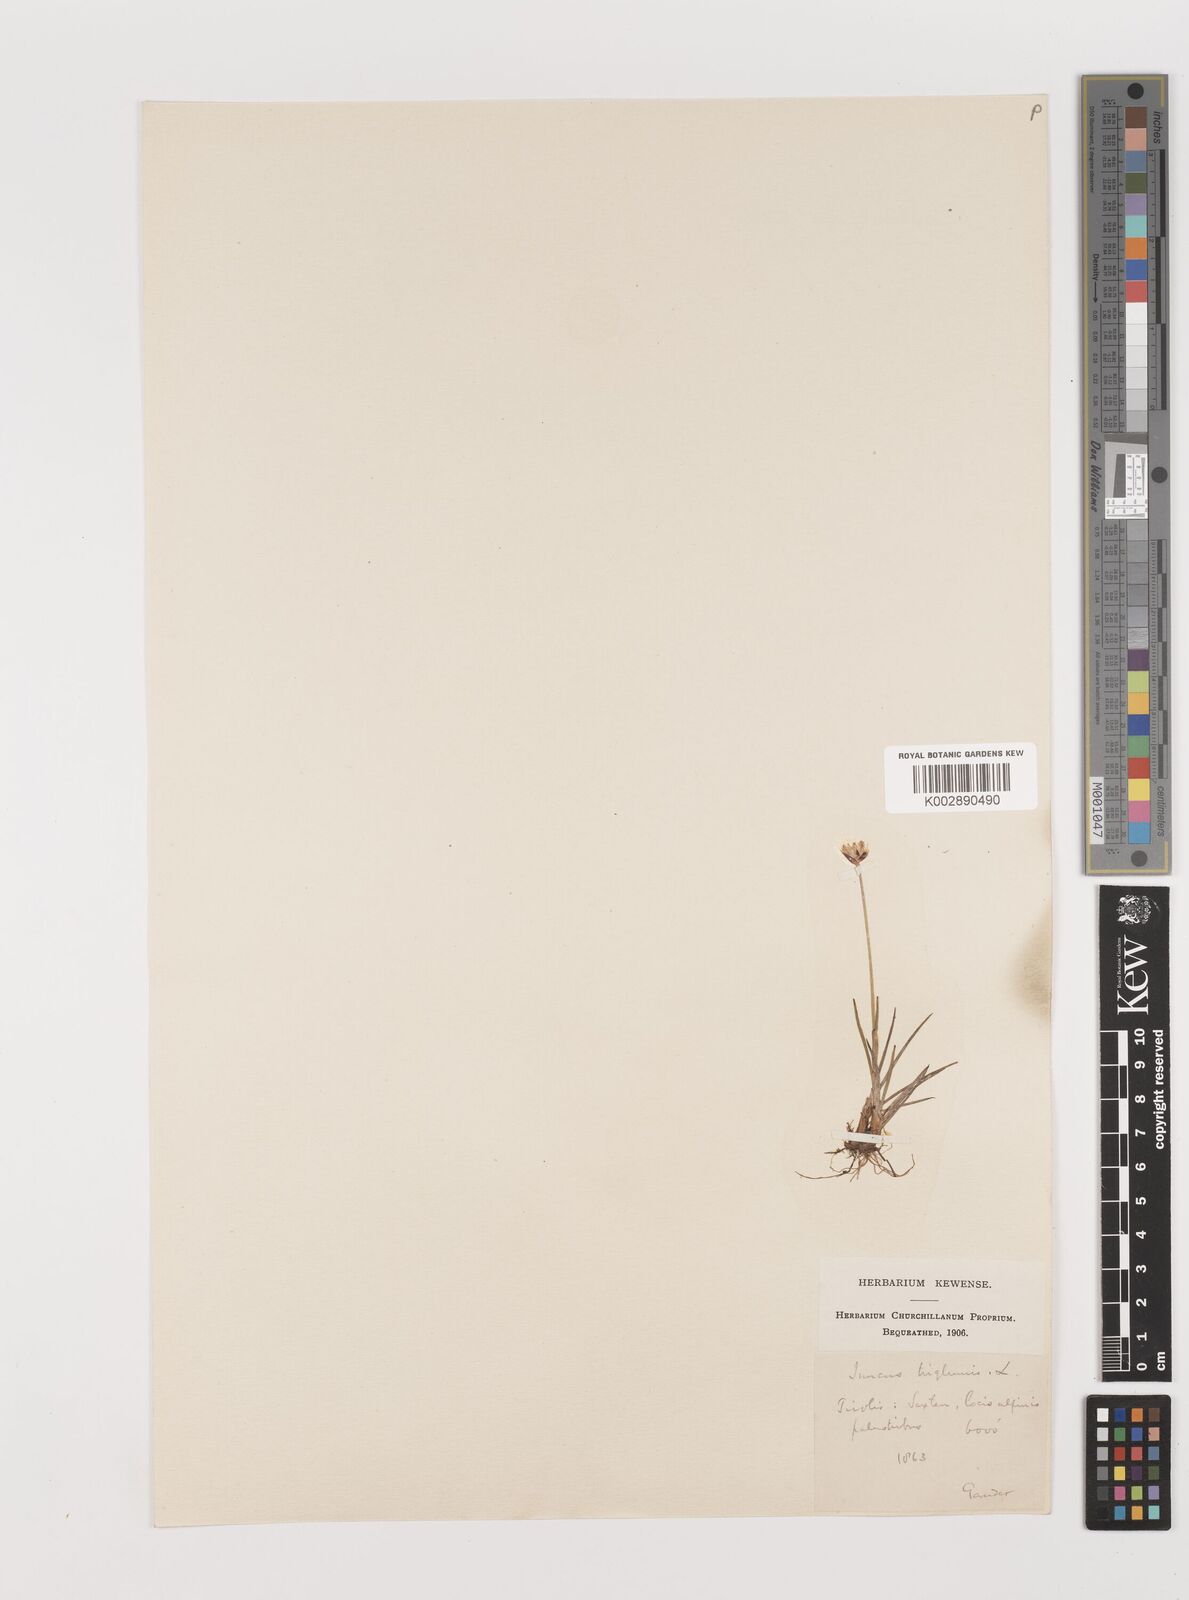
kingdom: Plantae
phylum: Tracheophyta
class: Liliopsida
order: Poales
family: Juncaceae
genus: Juncus
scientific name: Juncus triglumis
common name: Three-flowered rush
